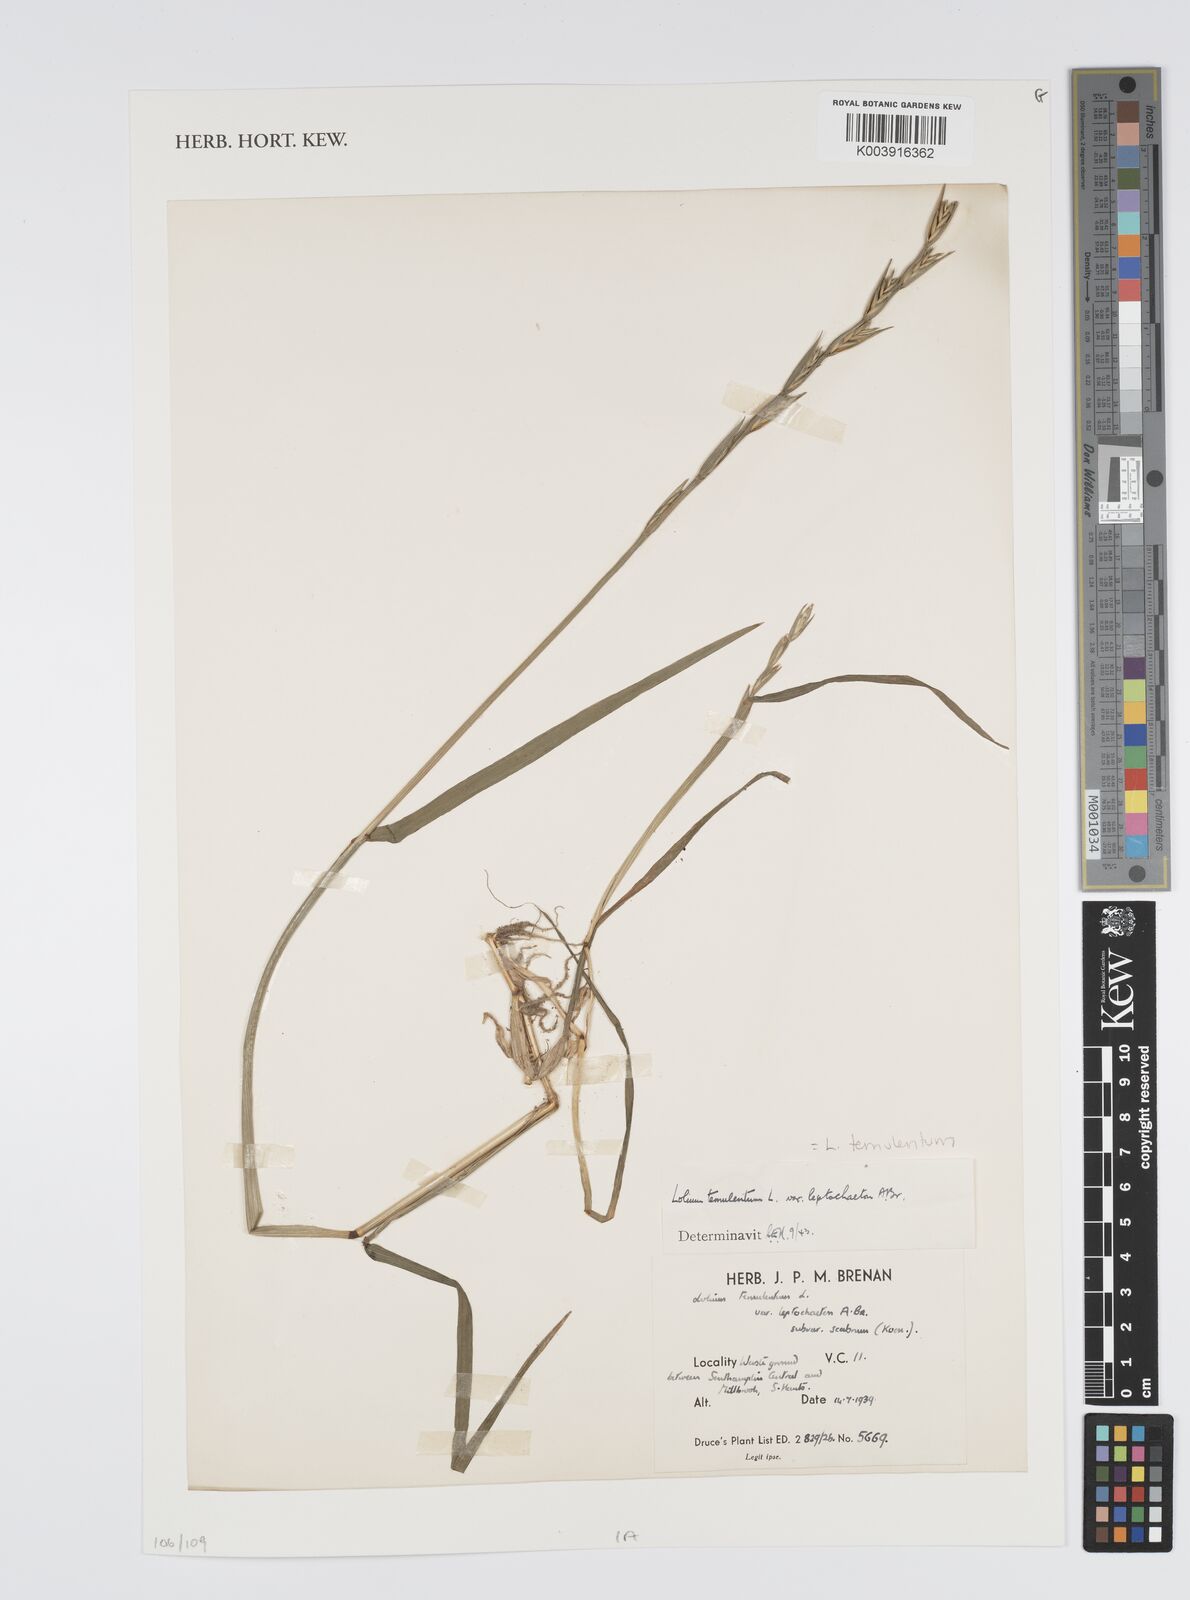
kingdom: Plantae
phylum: Tracheophyta
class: Liliopsida
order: Poales
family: Poaceae
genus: Lolium
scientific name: Lolium temulentum
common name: Darnel
